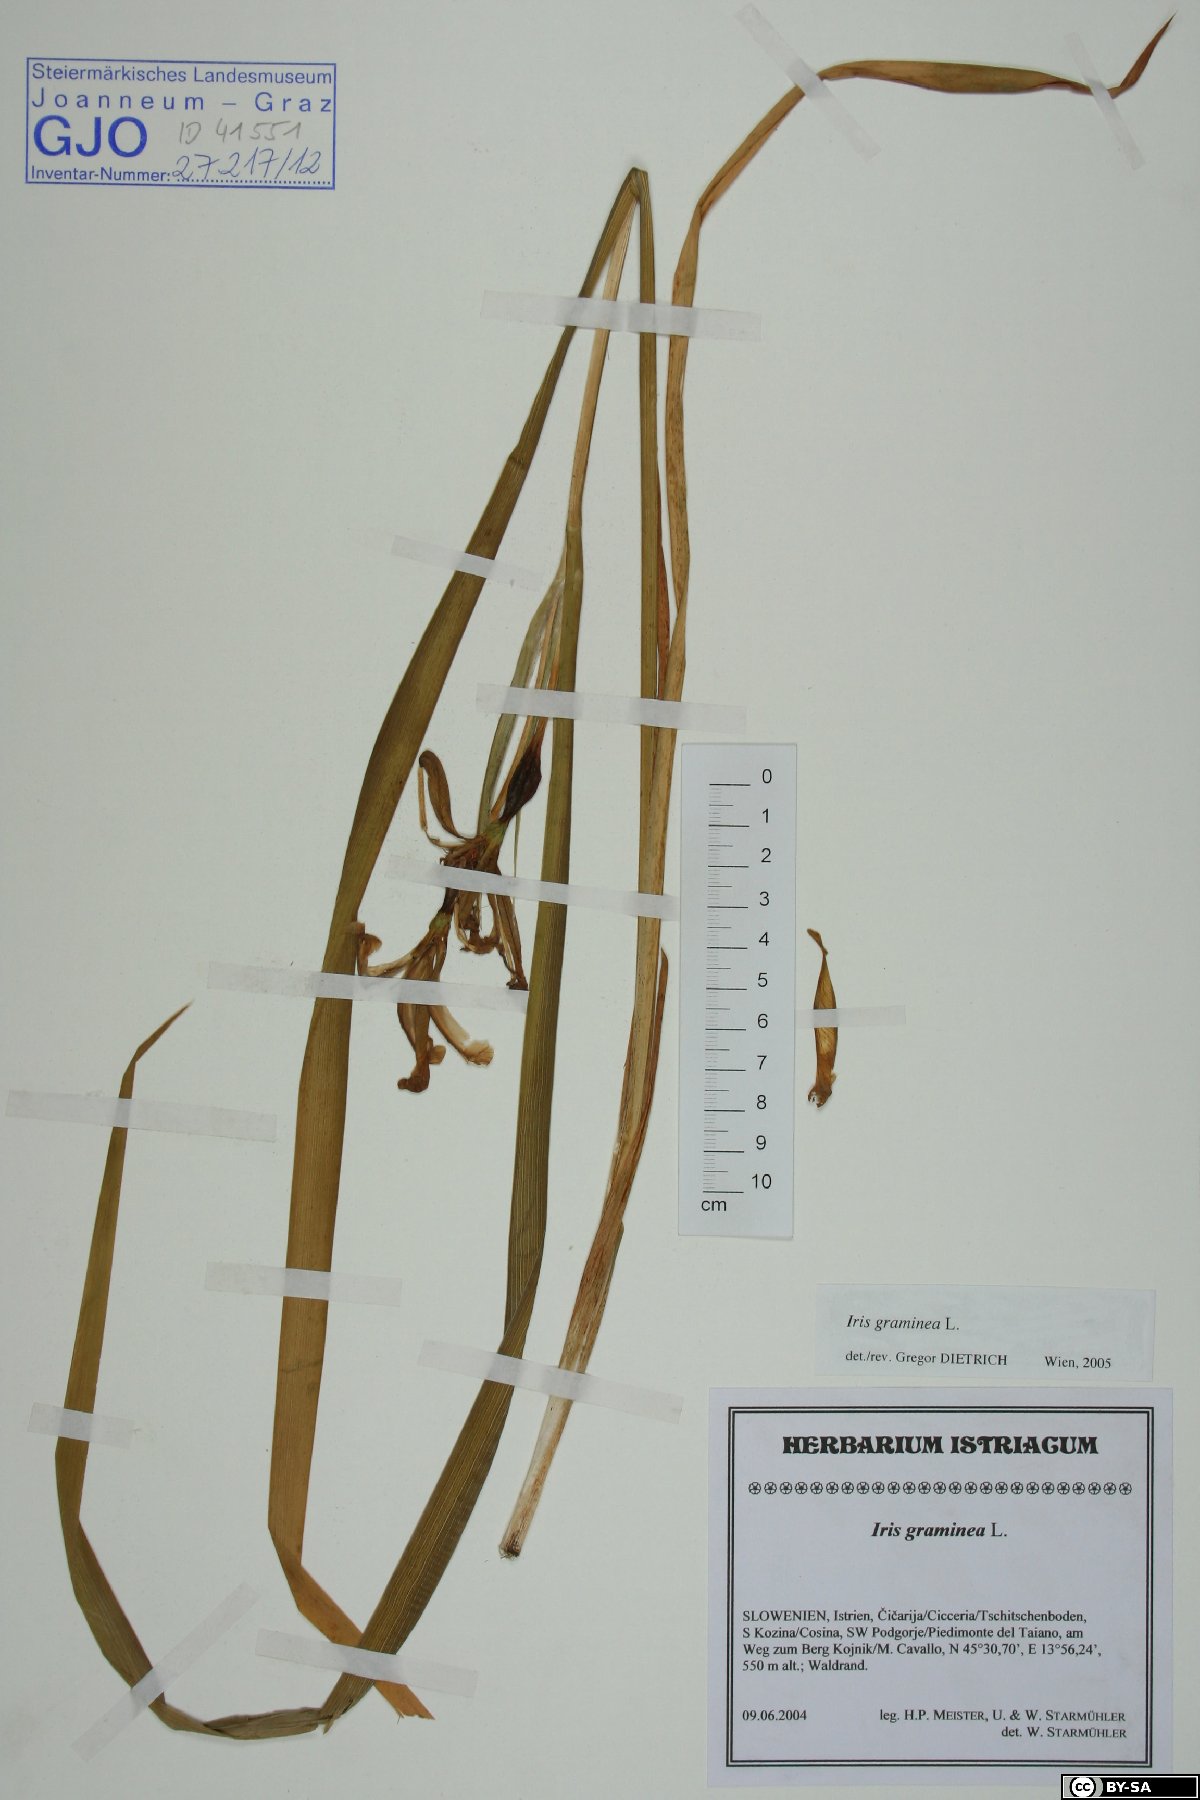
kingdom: Plantae
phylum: Tracheophyta
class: Liliopsida
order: Asparagales
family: Iridaceae
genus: Iris
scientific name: Iris graminea
